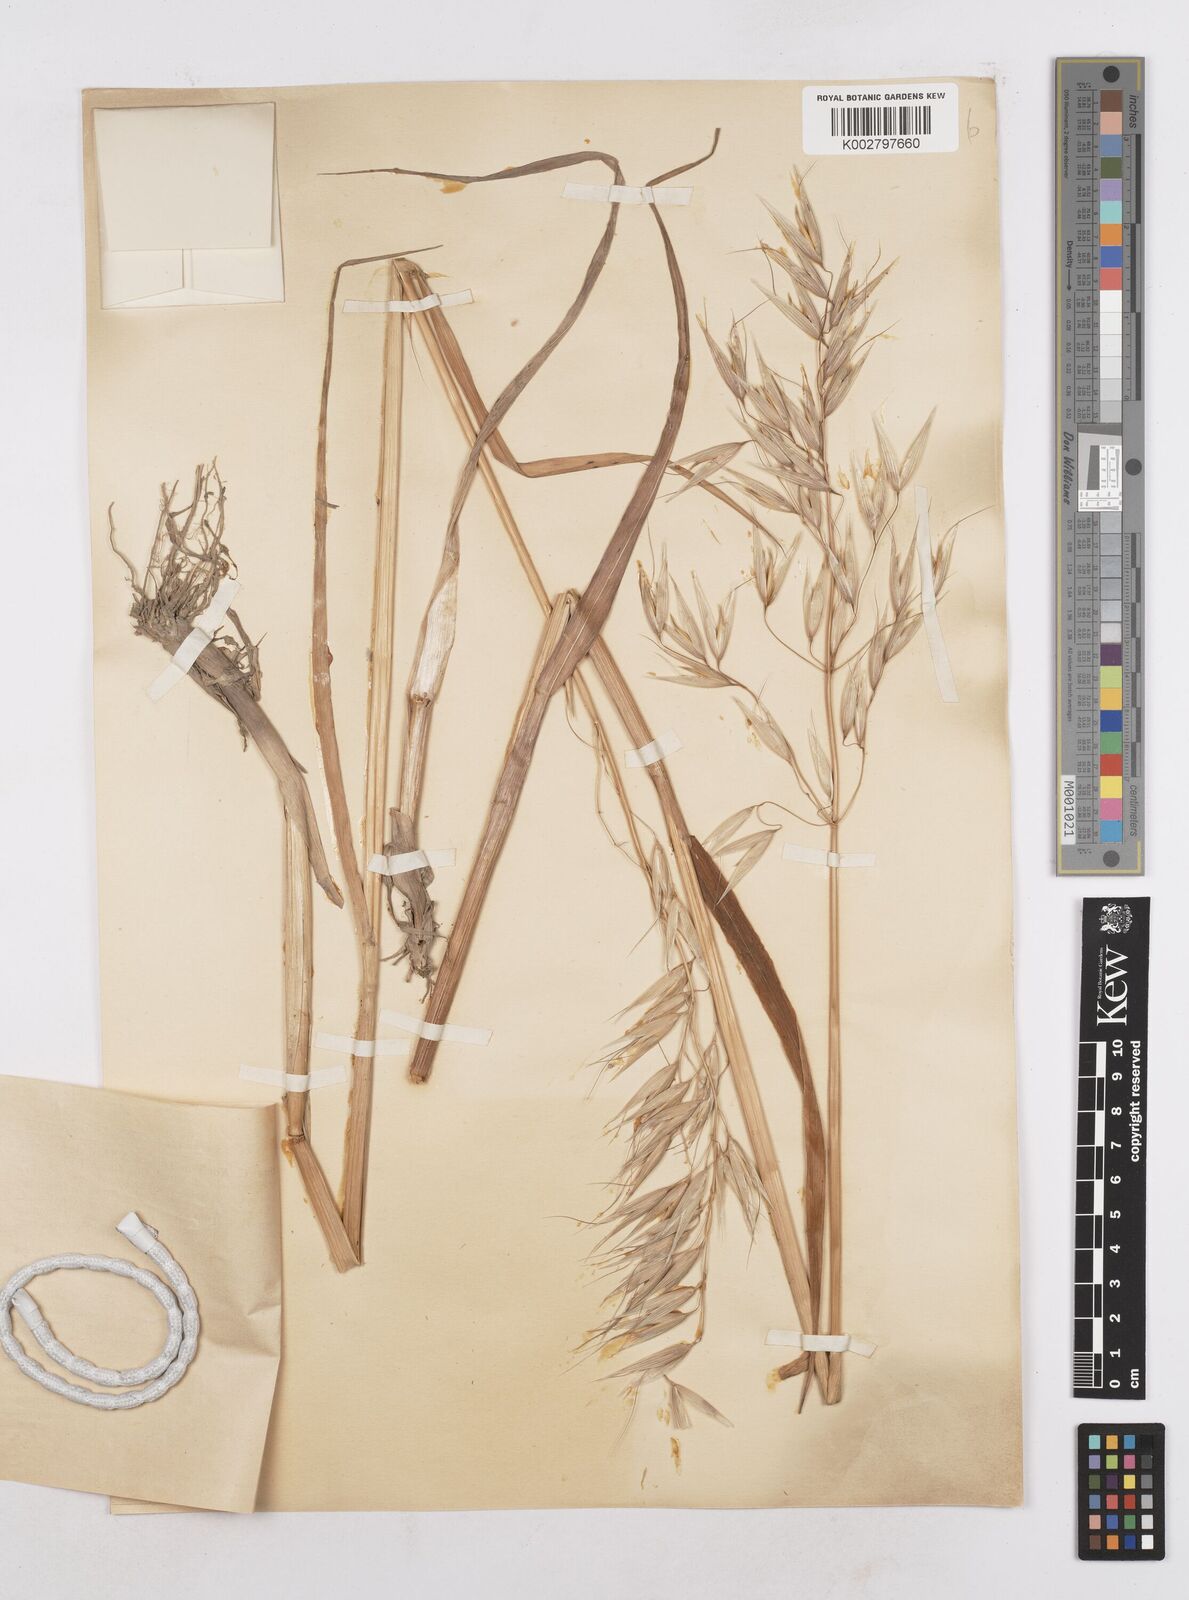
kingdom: Plantae
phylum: Tracheophyta
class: Liliopsida
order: Poales
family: Poaceae
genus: Avena
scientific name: Avena byzantina
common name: Algerian oat
